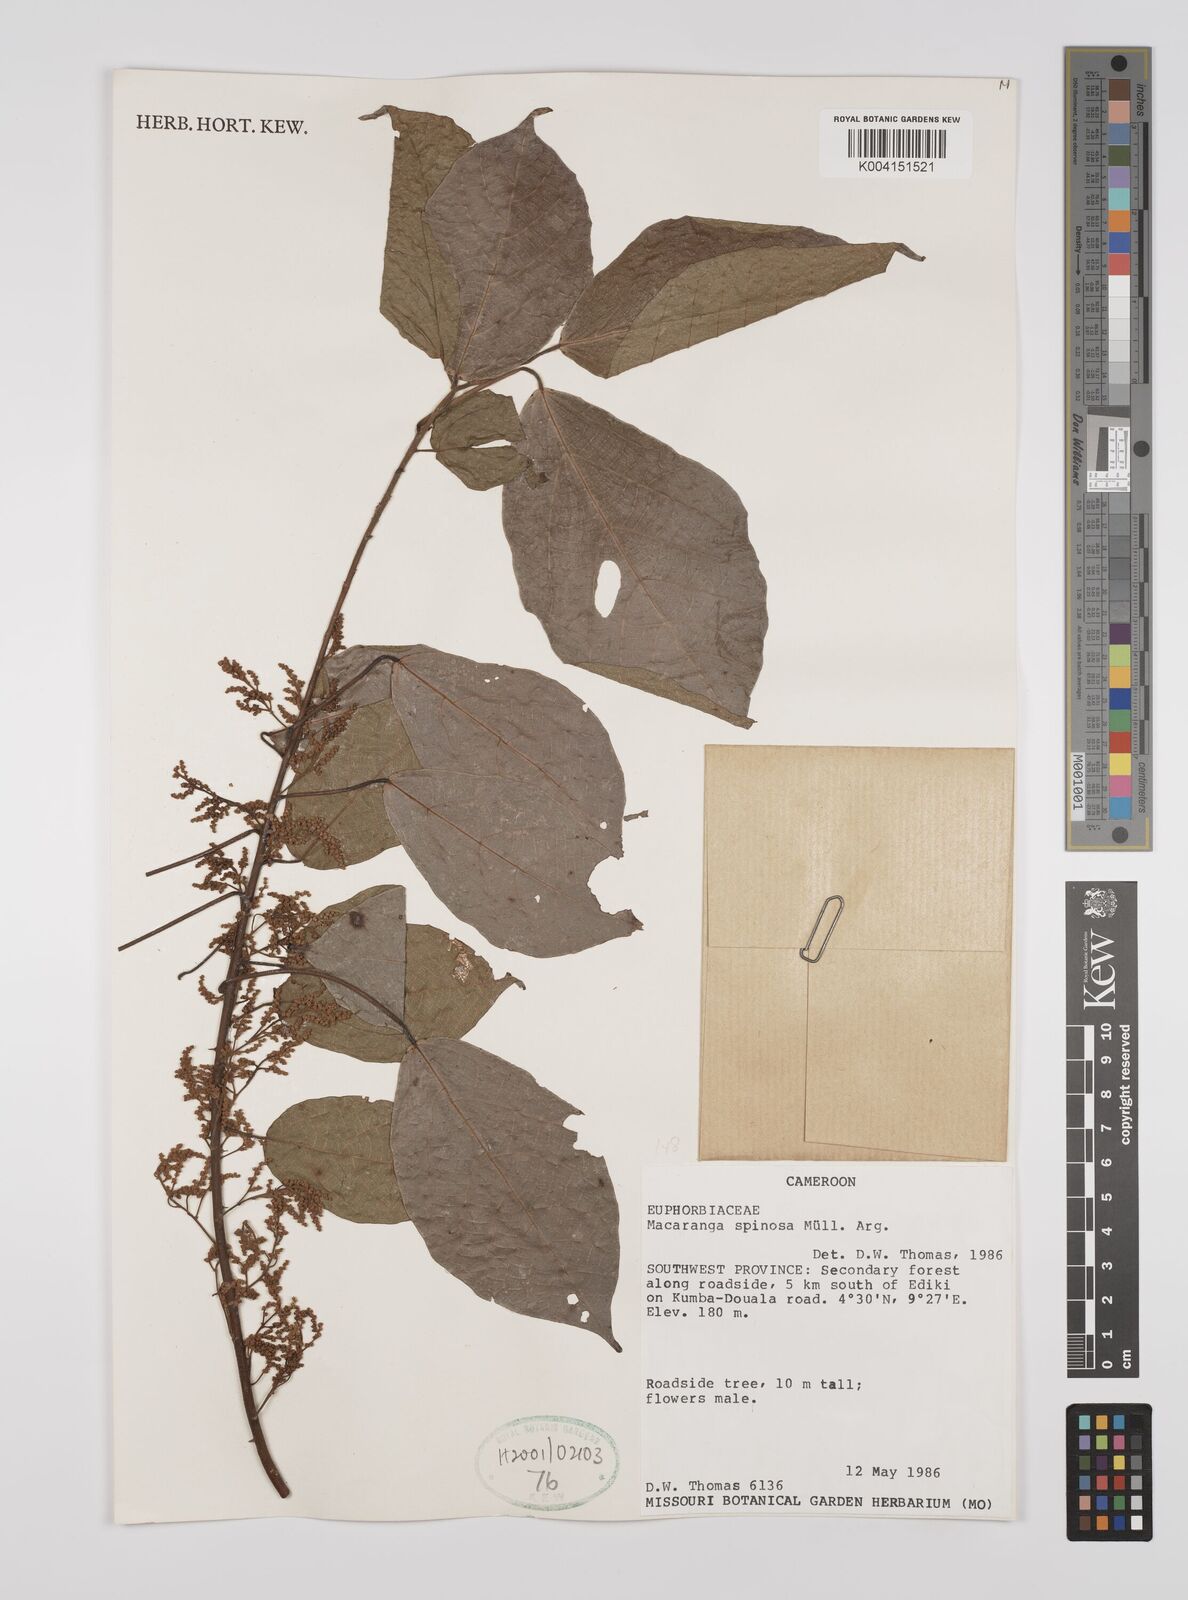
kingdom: Plantae
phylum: Tracheophyta
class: Magnoliopsida
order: Malpighiales
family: Euphorbiaceae
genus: Macaranga
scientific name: Macaranga spinosa
